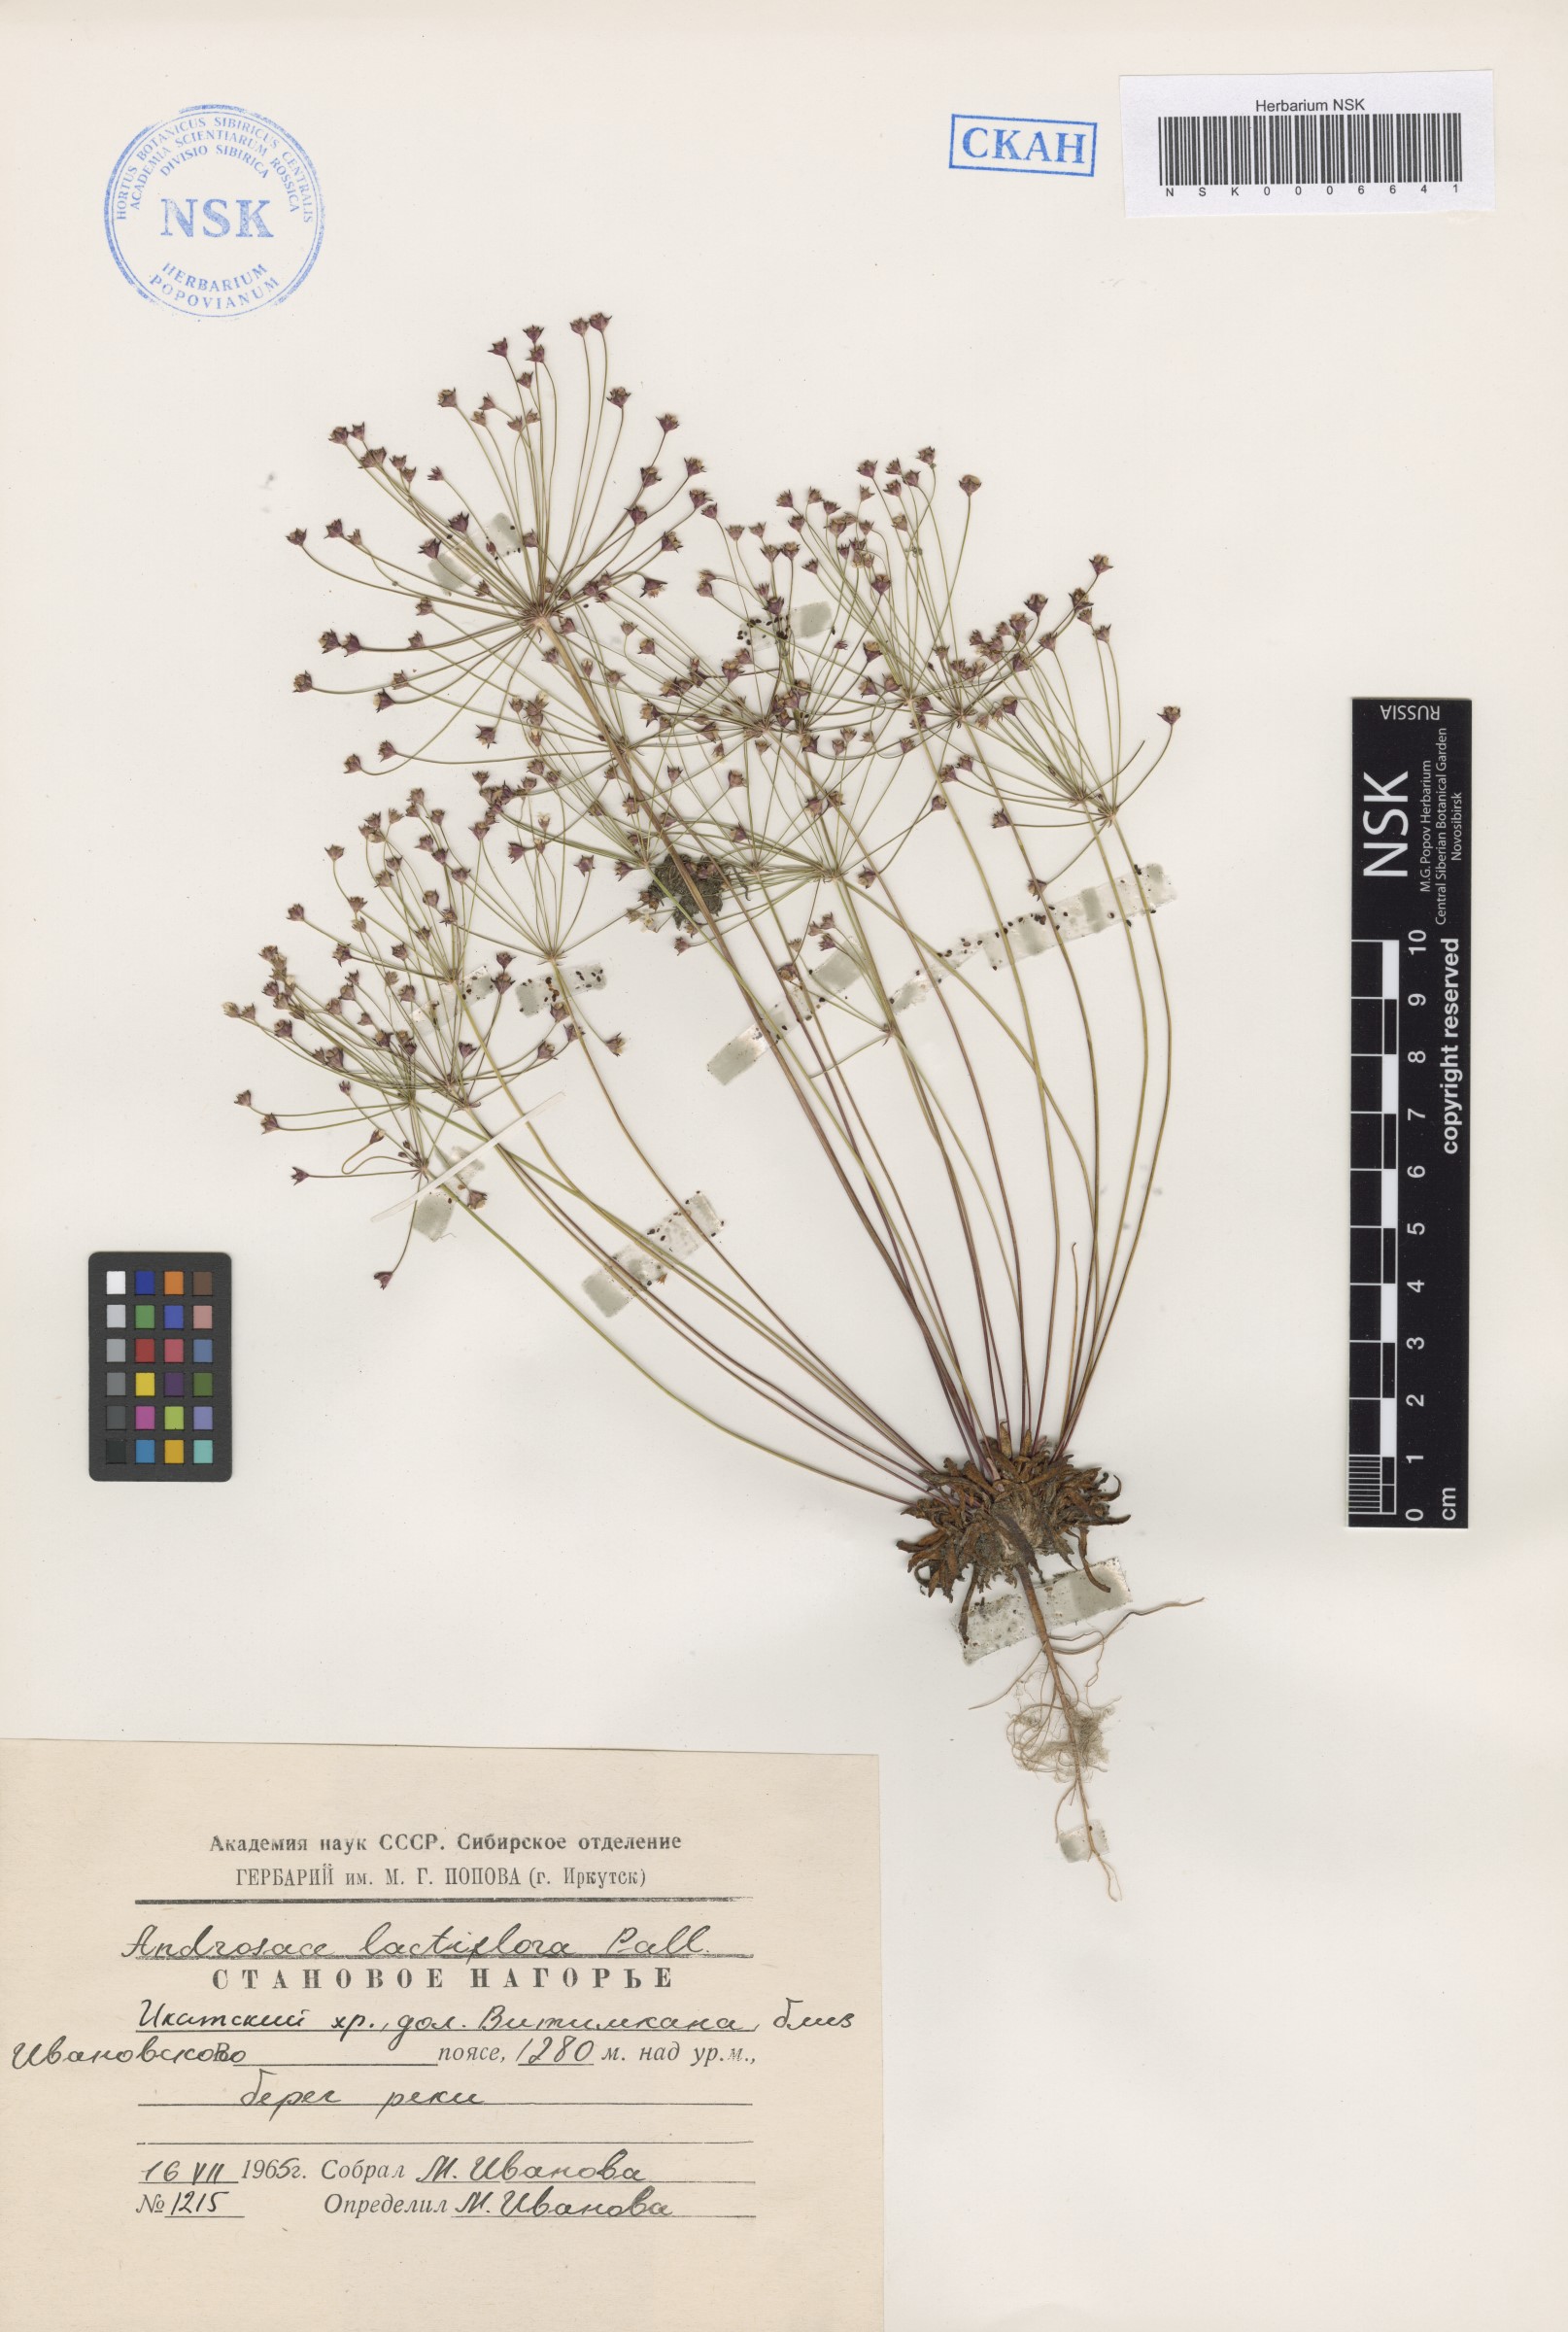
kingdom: Plantae
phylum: Tracheophyta
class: Magnoliopsida
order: Ericales
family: Primulaceae
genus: Androsace
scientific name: Androsace lactiflora
